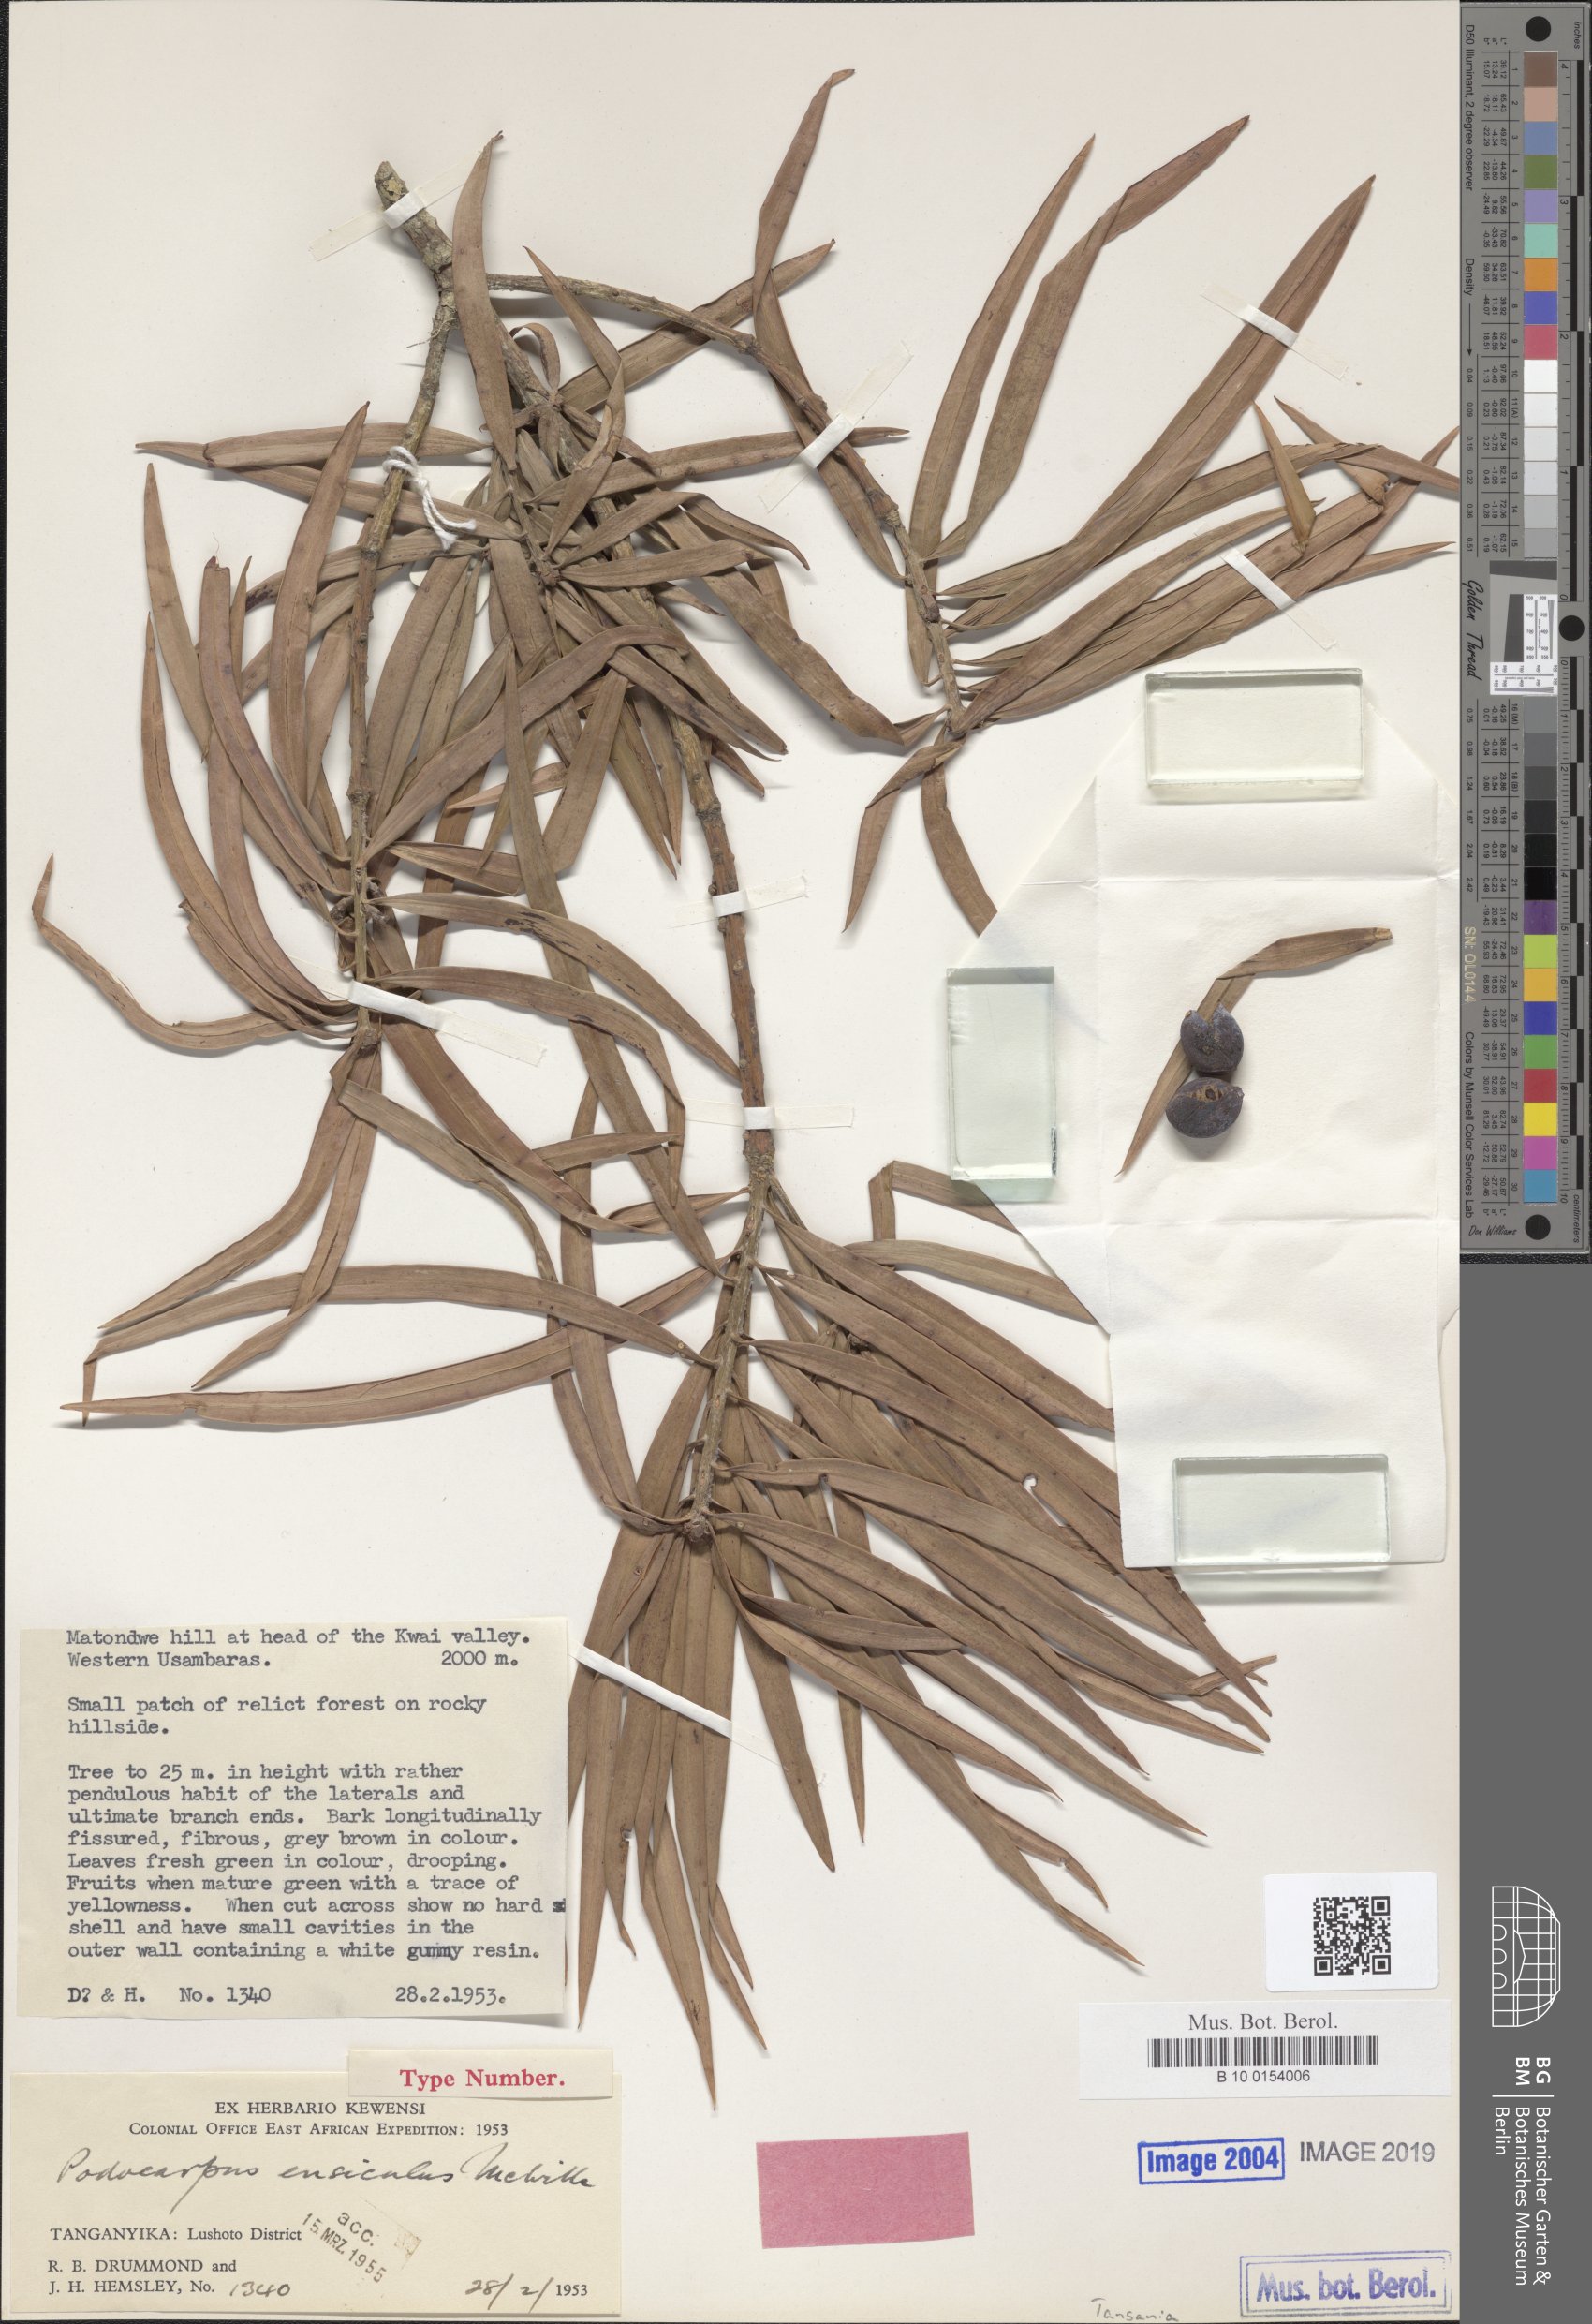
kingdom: Plantae
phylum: Tracheophyta
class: Pinopsida
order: Pinales
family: Podocarpaceae
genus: Podocarpus
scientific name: Podocarpus henkelii
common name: Henkel's yellowwood
